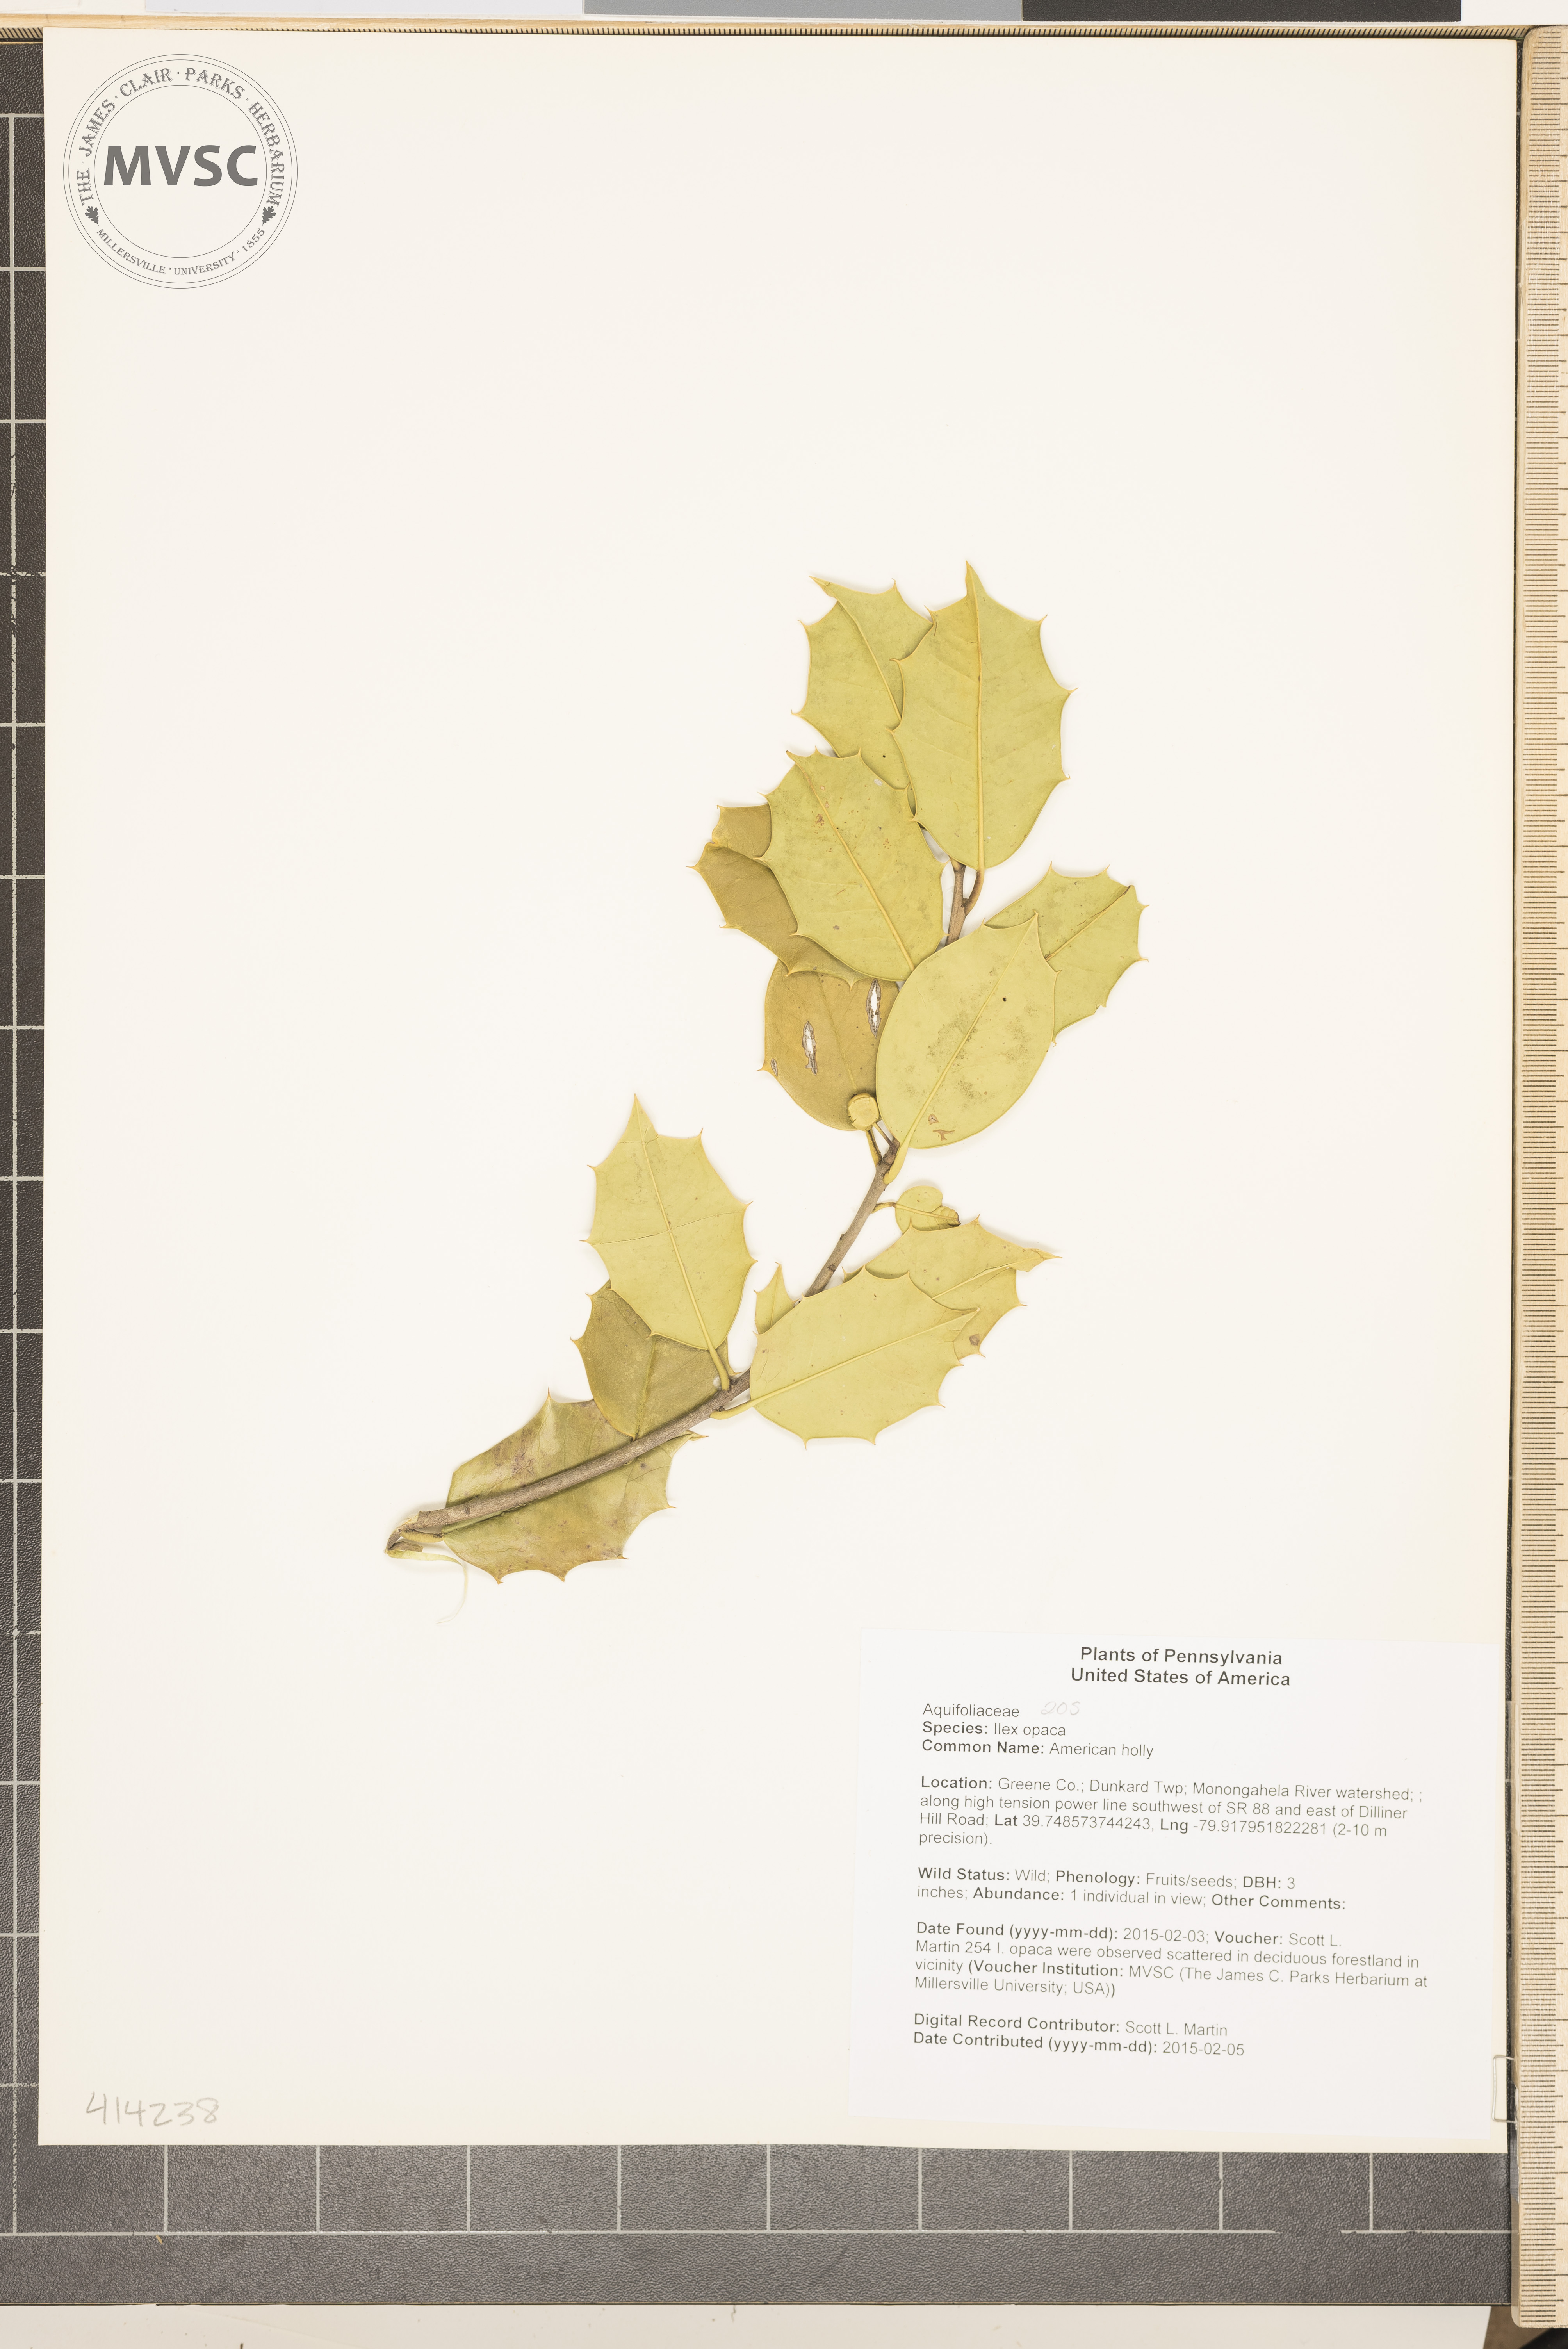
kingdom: Plantae
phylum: Tracheophyta
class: Magnoliopsida
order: Aquifoliales
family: Aquifoliaceae
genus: Ilex
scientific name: Ilex opaca
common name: American holly
